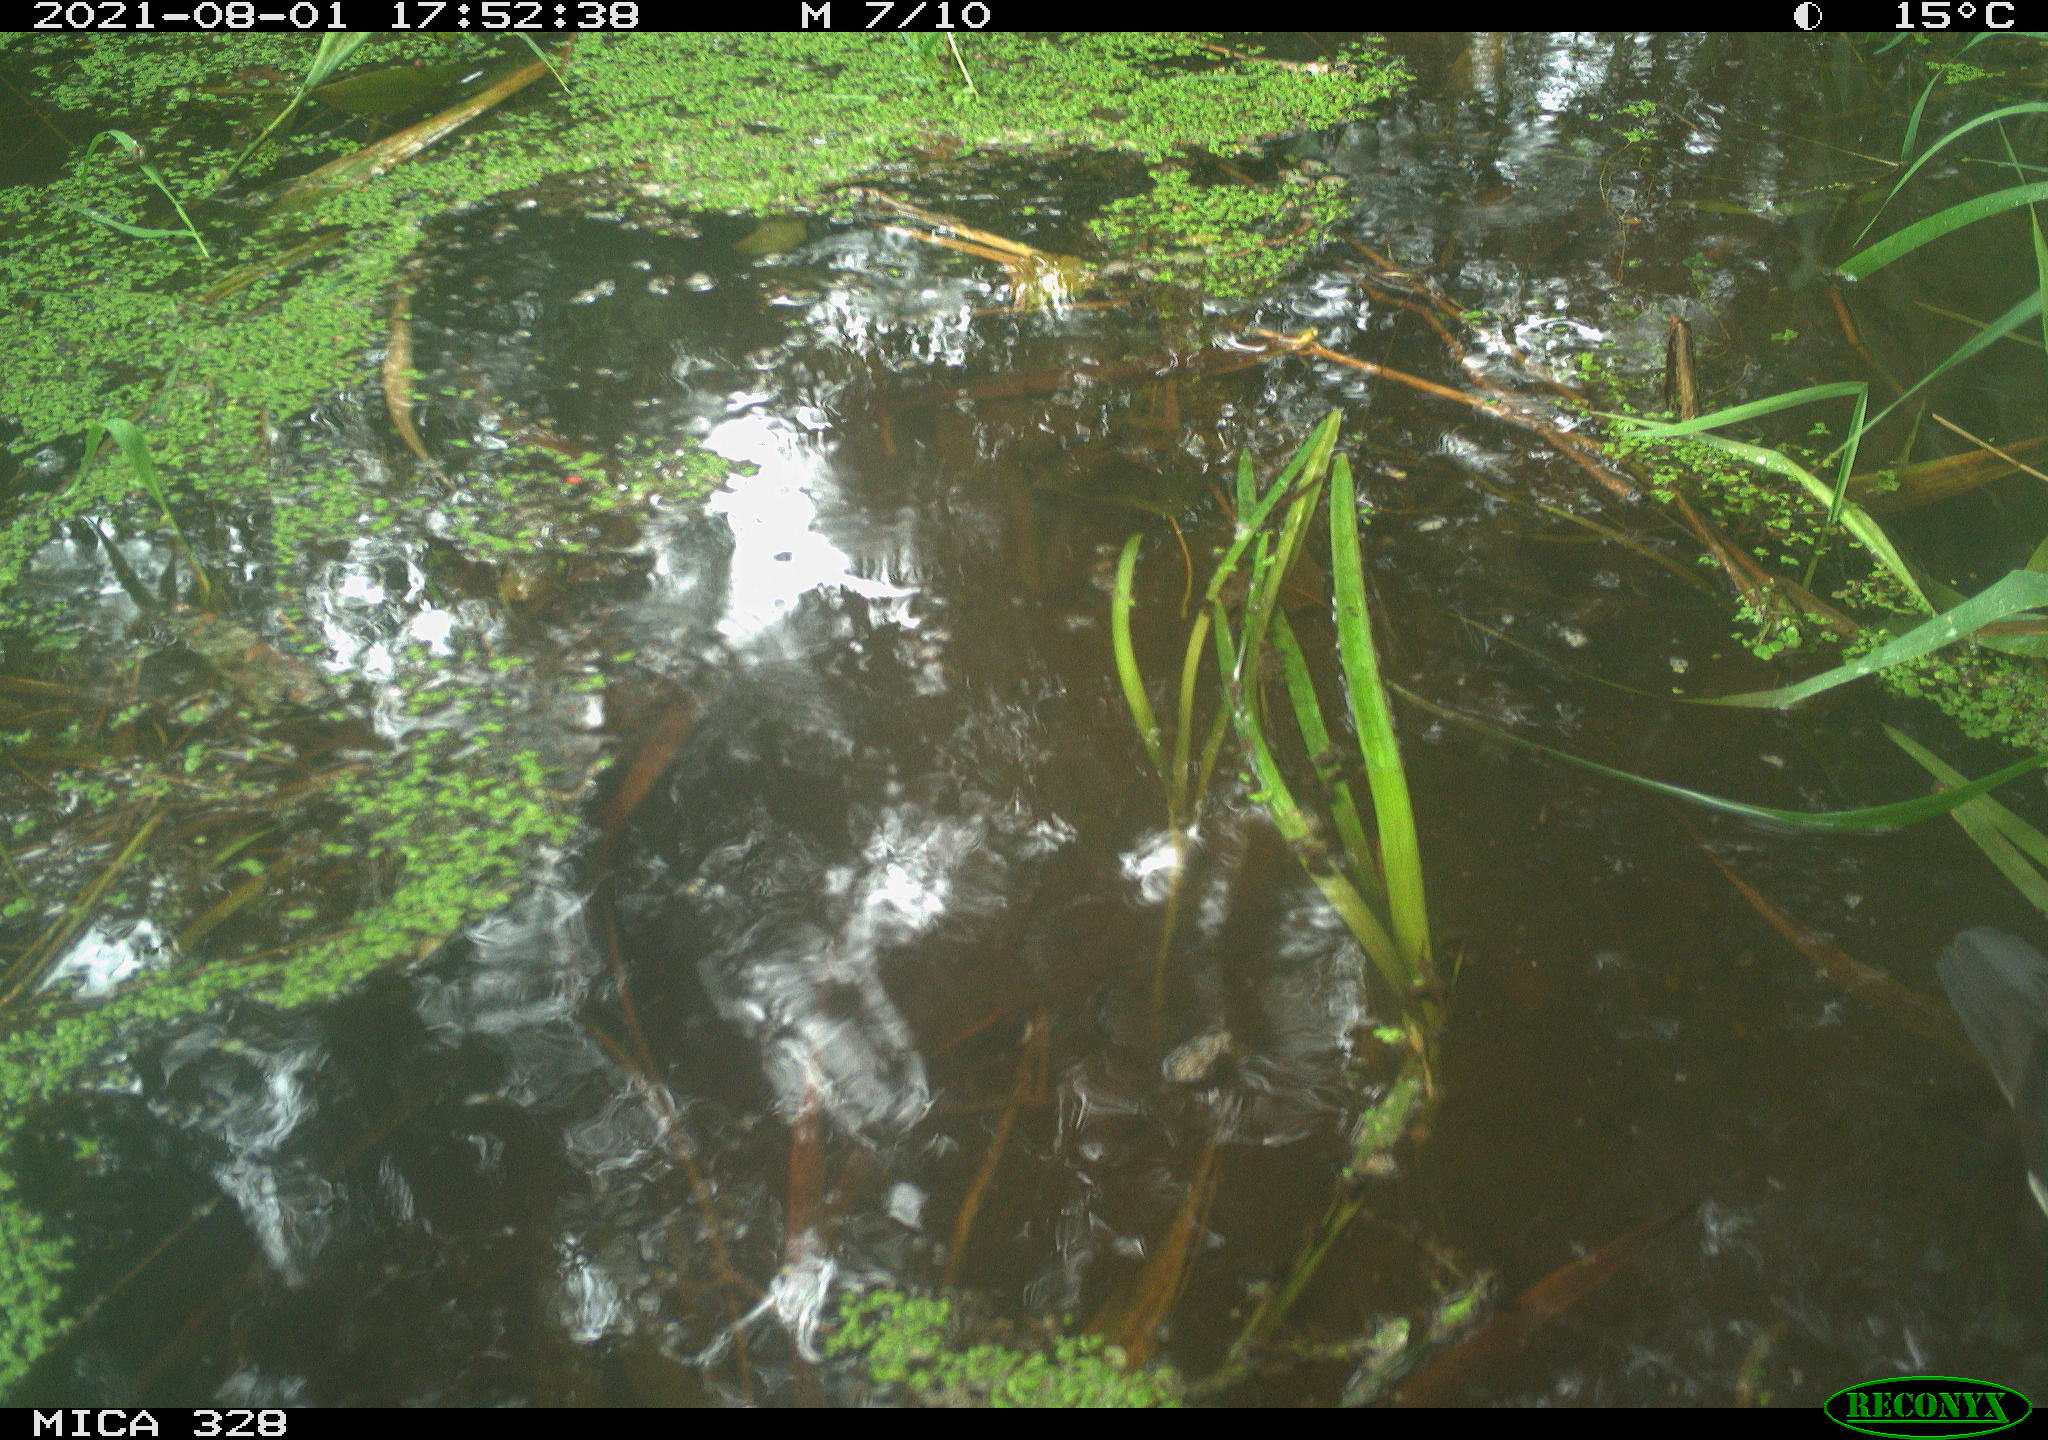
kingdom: Animalia
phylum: Chordata
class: Aves
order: Gruiformes
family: Rallidae
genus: Gallinula
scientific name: Gallinula chloropus
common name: Common moorhen
